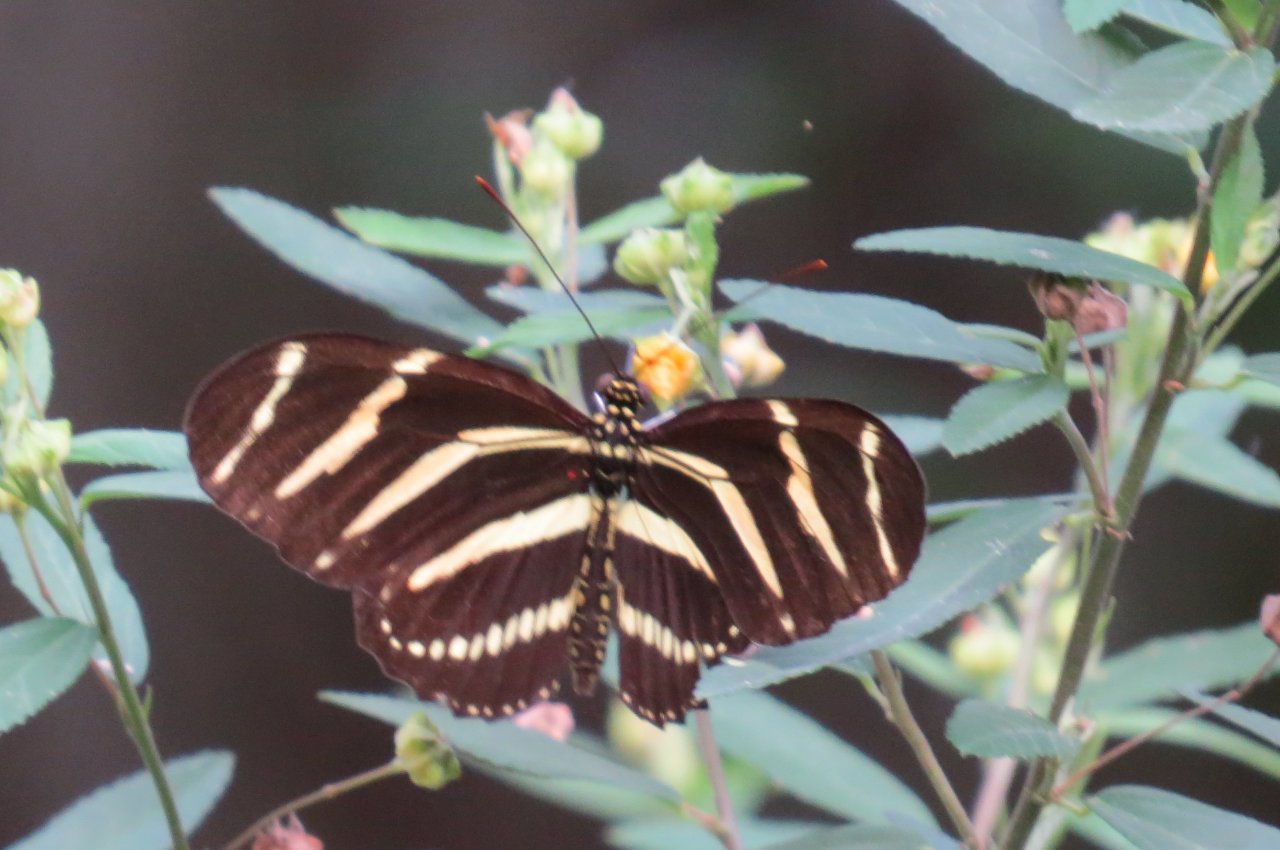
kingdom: Animalia
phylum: Arthropoda
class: Insecta
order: Lepidoptera
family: Nymphalidae
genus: Heliconius
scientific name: Heliconius charithonia
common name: Zebra Longwing
